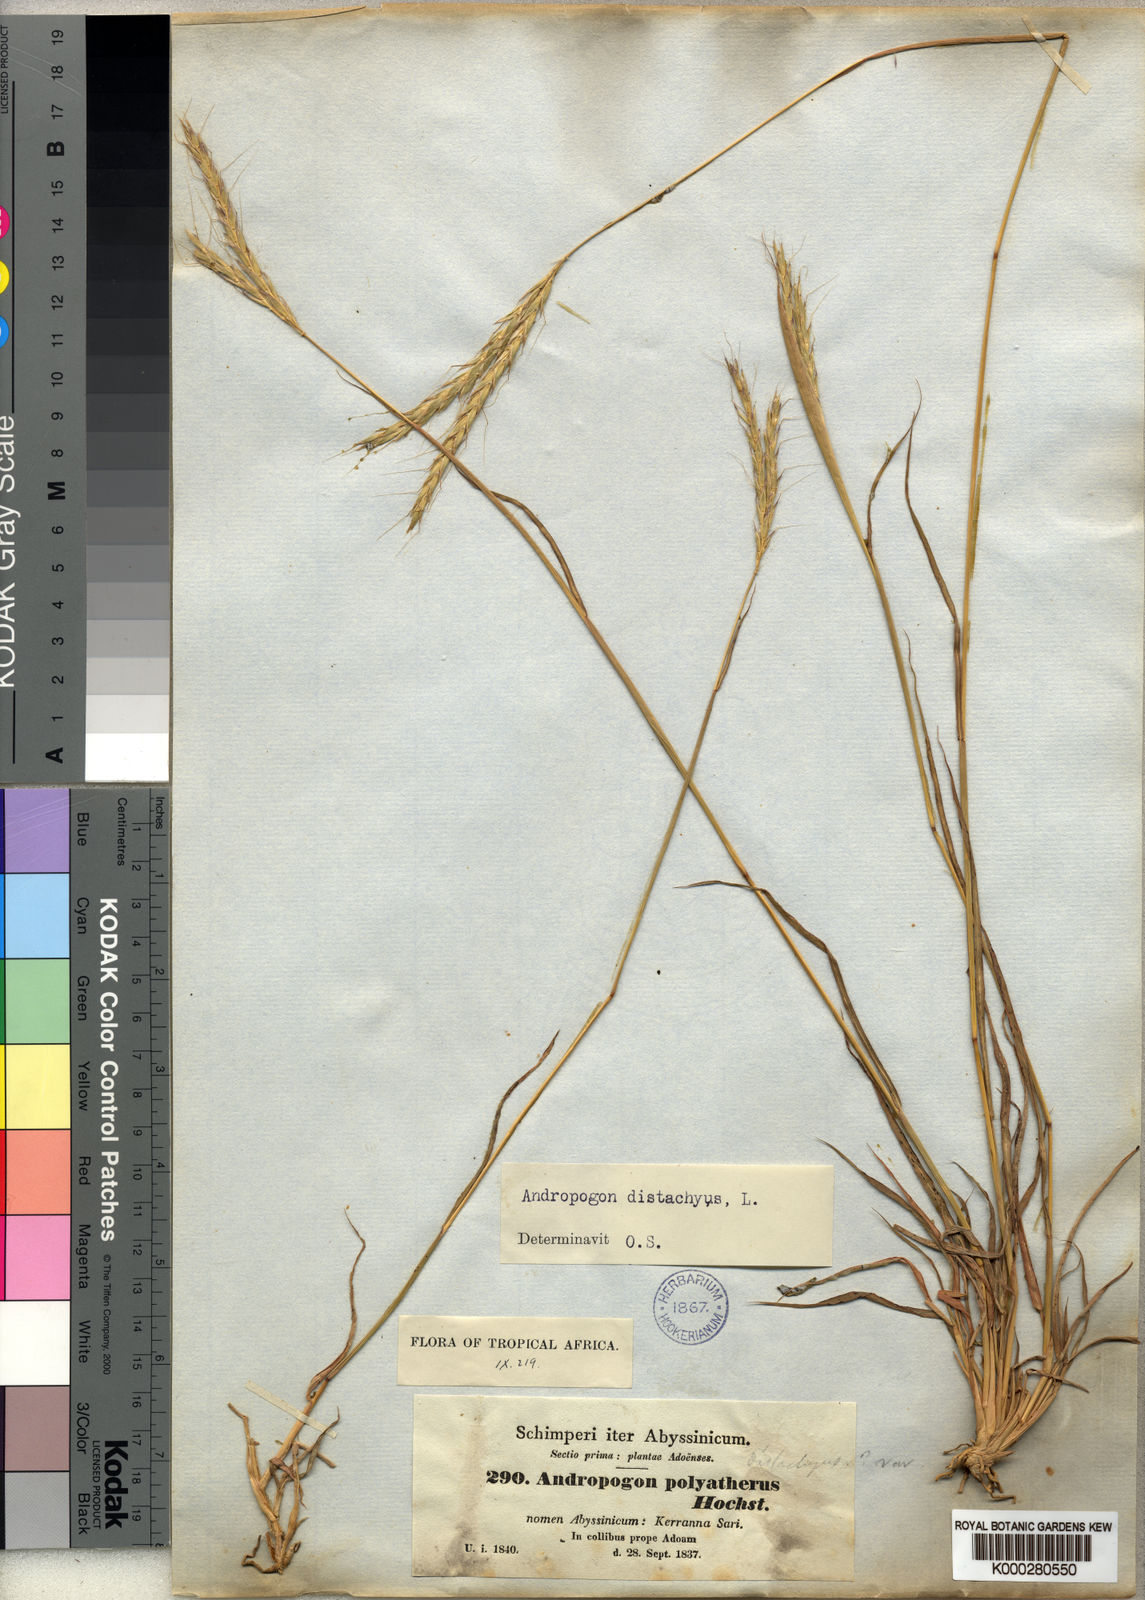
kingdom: Plantae
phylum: Tracheophyta
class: Liliopsida
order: Poales
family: Poaceae
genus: Andropogon
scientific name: Andropogon abyssinicus
